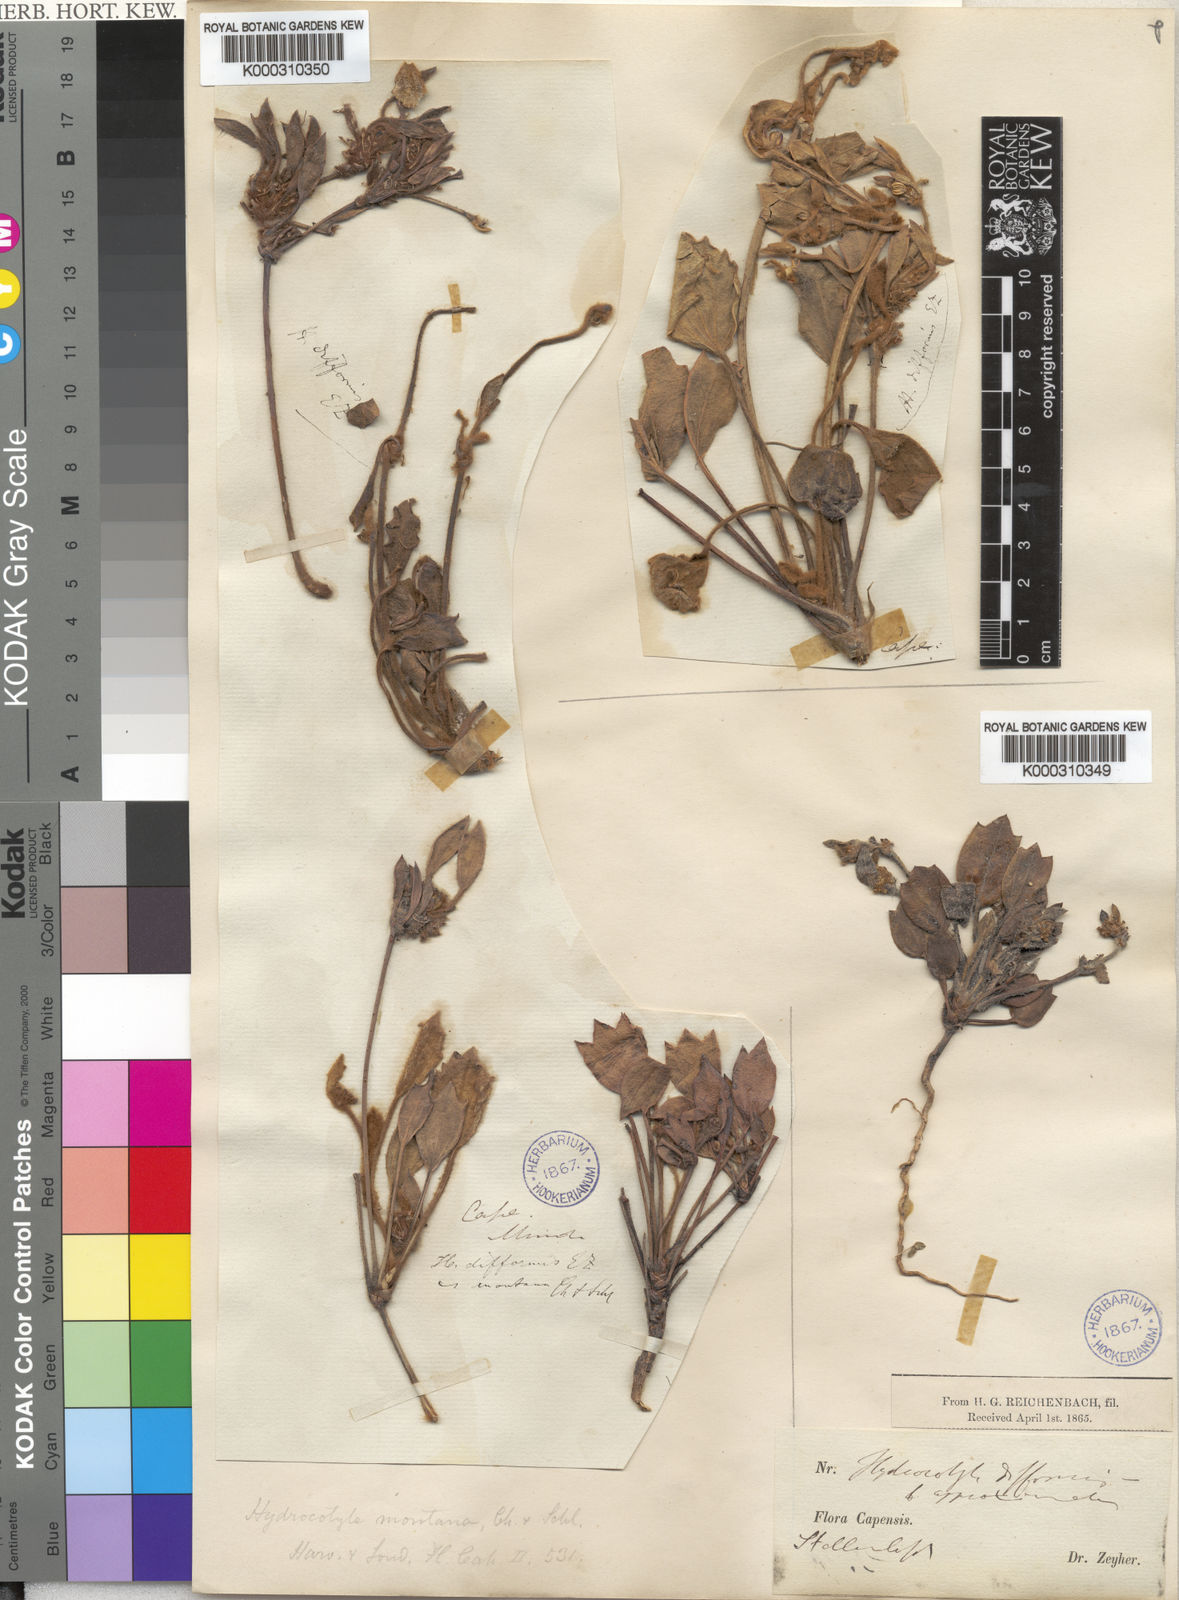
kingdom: Plantae
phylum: Tracheophyta
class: Magnoliopsida
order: Apiales
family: Apiaceae
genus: Centella
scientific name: Centella montana
